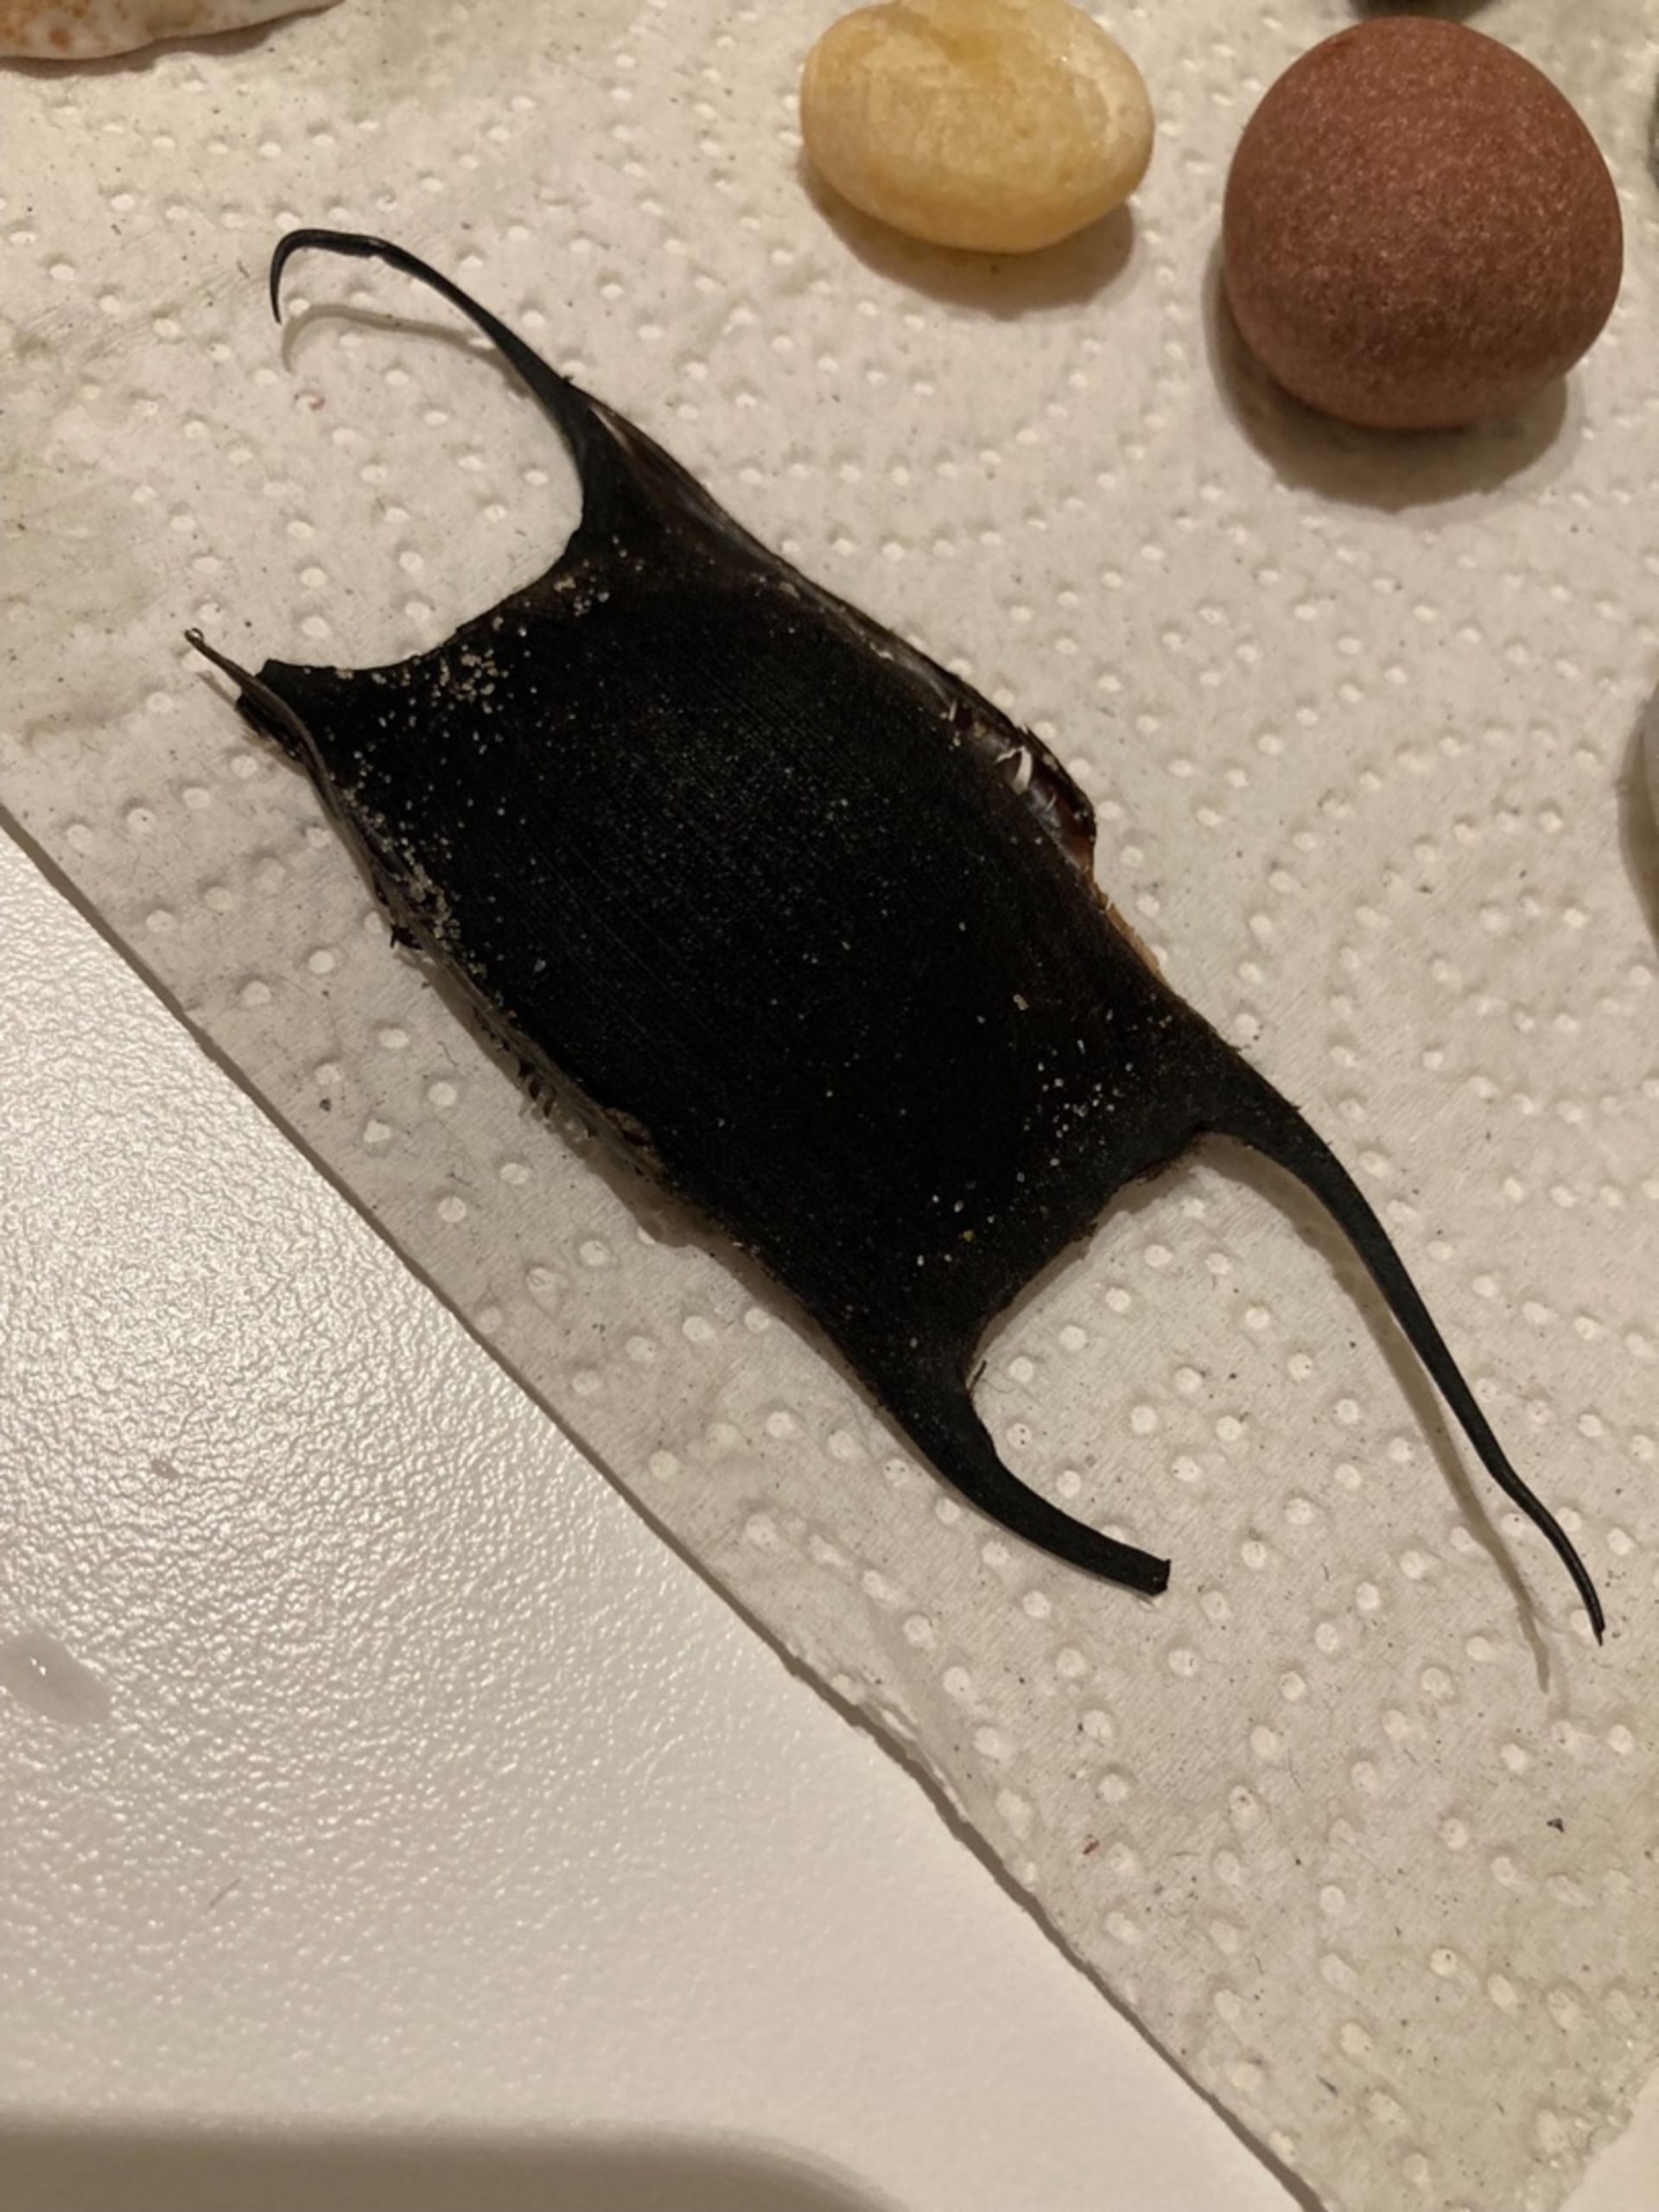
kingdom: Animalia
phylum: Chordata
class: Elasmobranchii
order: Rajiformes
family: Rajidae
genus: Amblyraja
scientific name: Amblyraja radiata
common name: Tærbe
